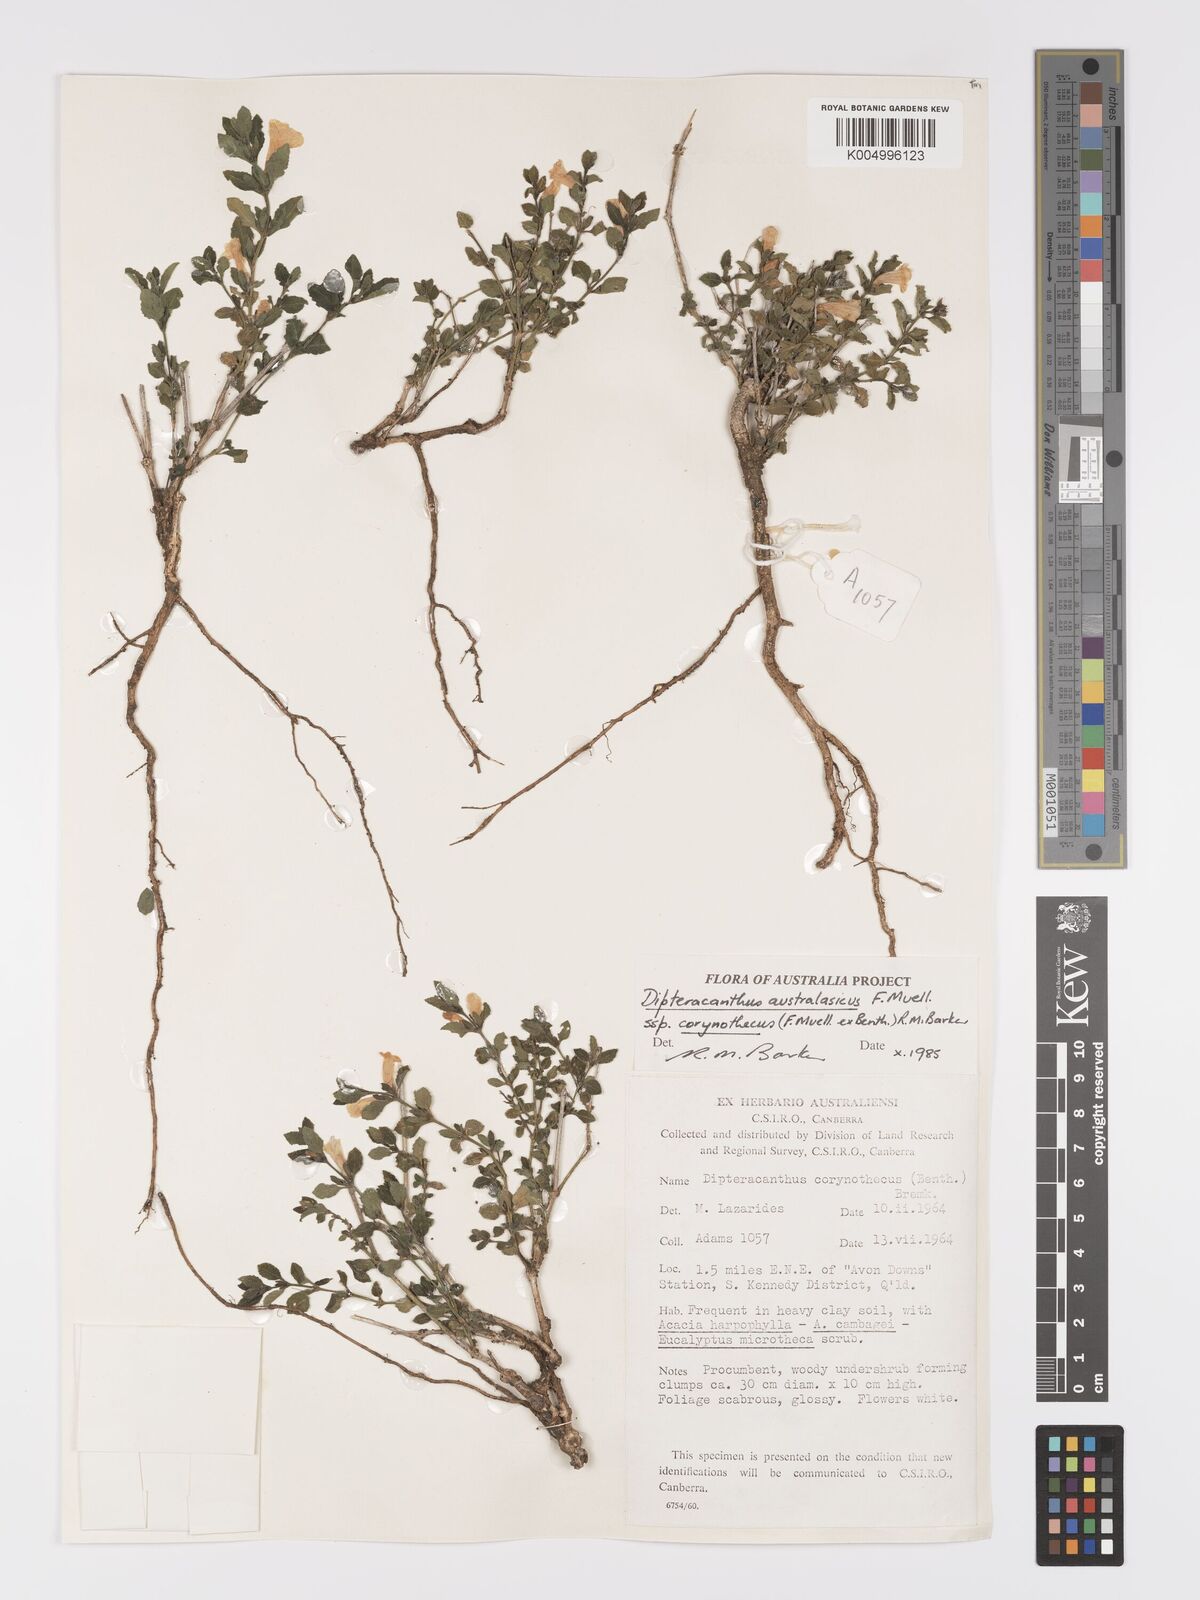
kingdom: Plantae
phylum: Tracheophyta
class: Magnoliopsida
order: Lamiales
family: Acanthaceae
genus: Ruellia
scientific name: Ruellia corynotheca
